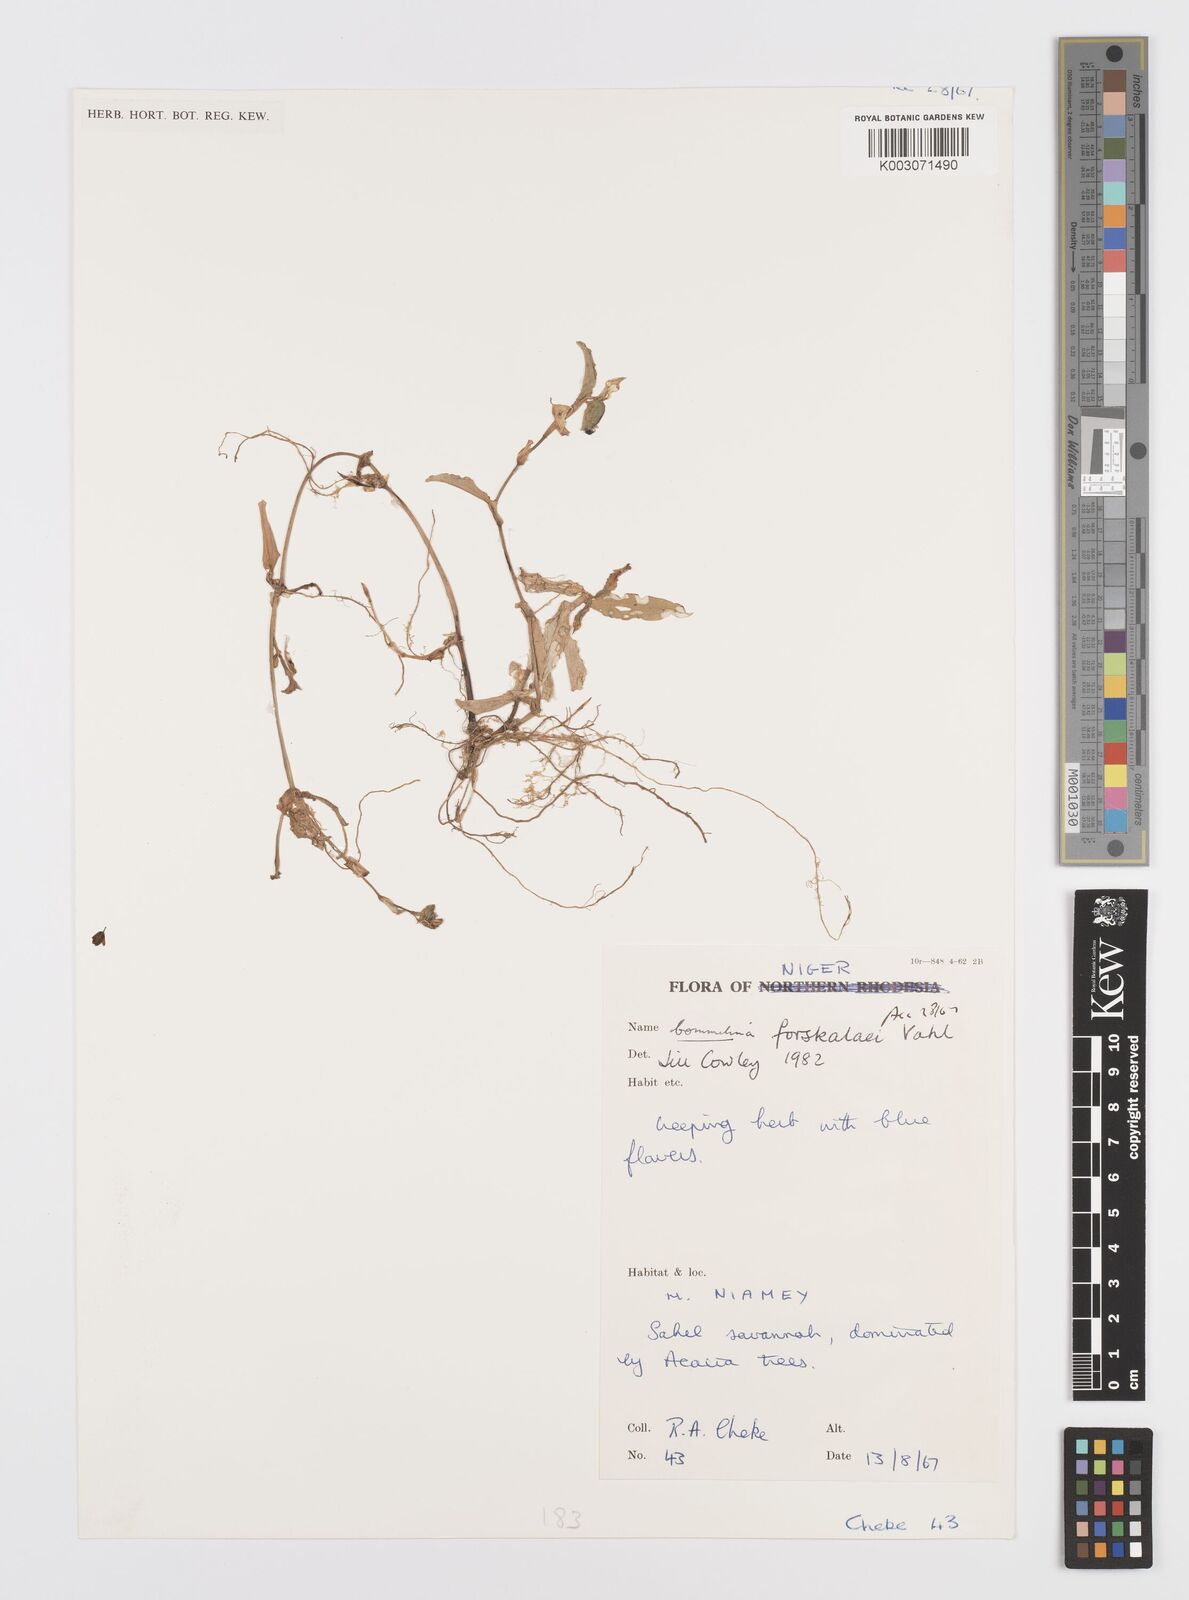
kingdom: Plantae
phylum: Tracheophyta
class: Liliopsida
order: Commelinales
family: Commelinaceae
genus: Commelina
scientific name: Commelina forskaolii
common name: Rat's ear
